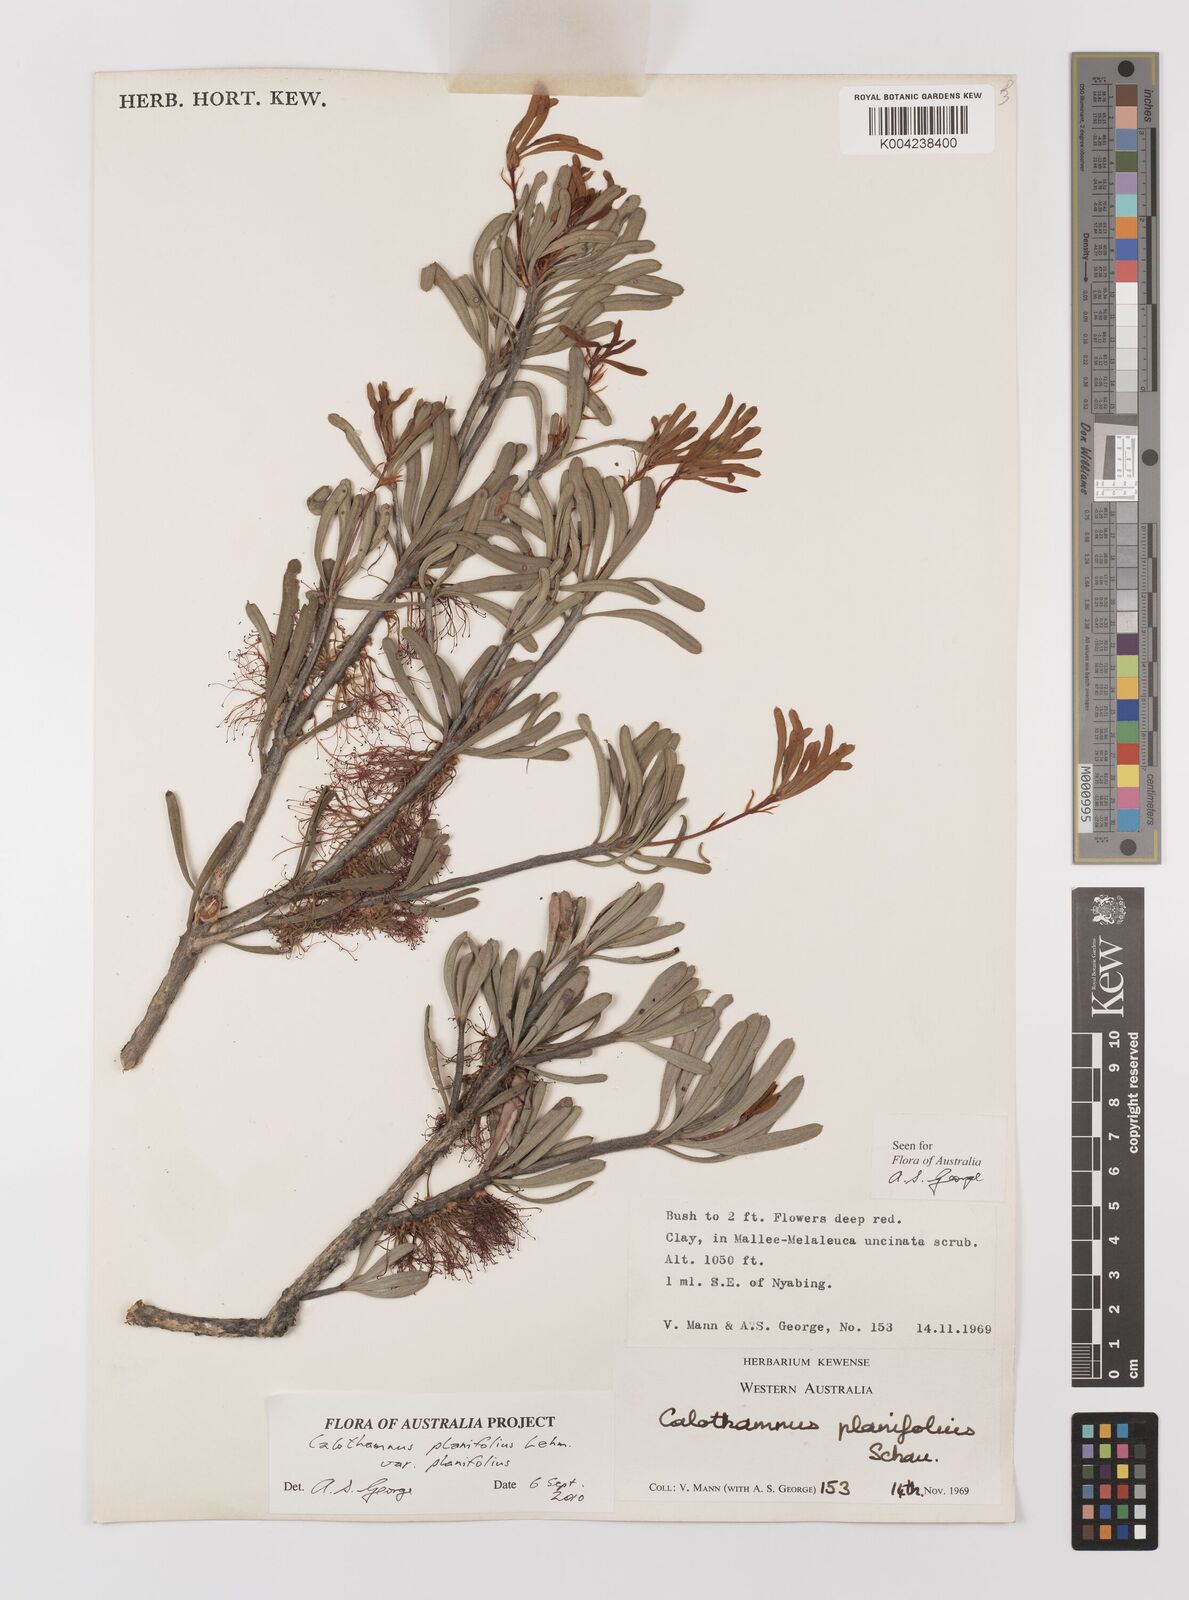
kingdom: Plantae
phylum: Tracheophyta
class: Magnoliopsida
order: Myrtales
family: Myrtaceae
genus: Melaleuca
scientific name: Melaleuca planifolia
